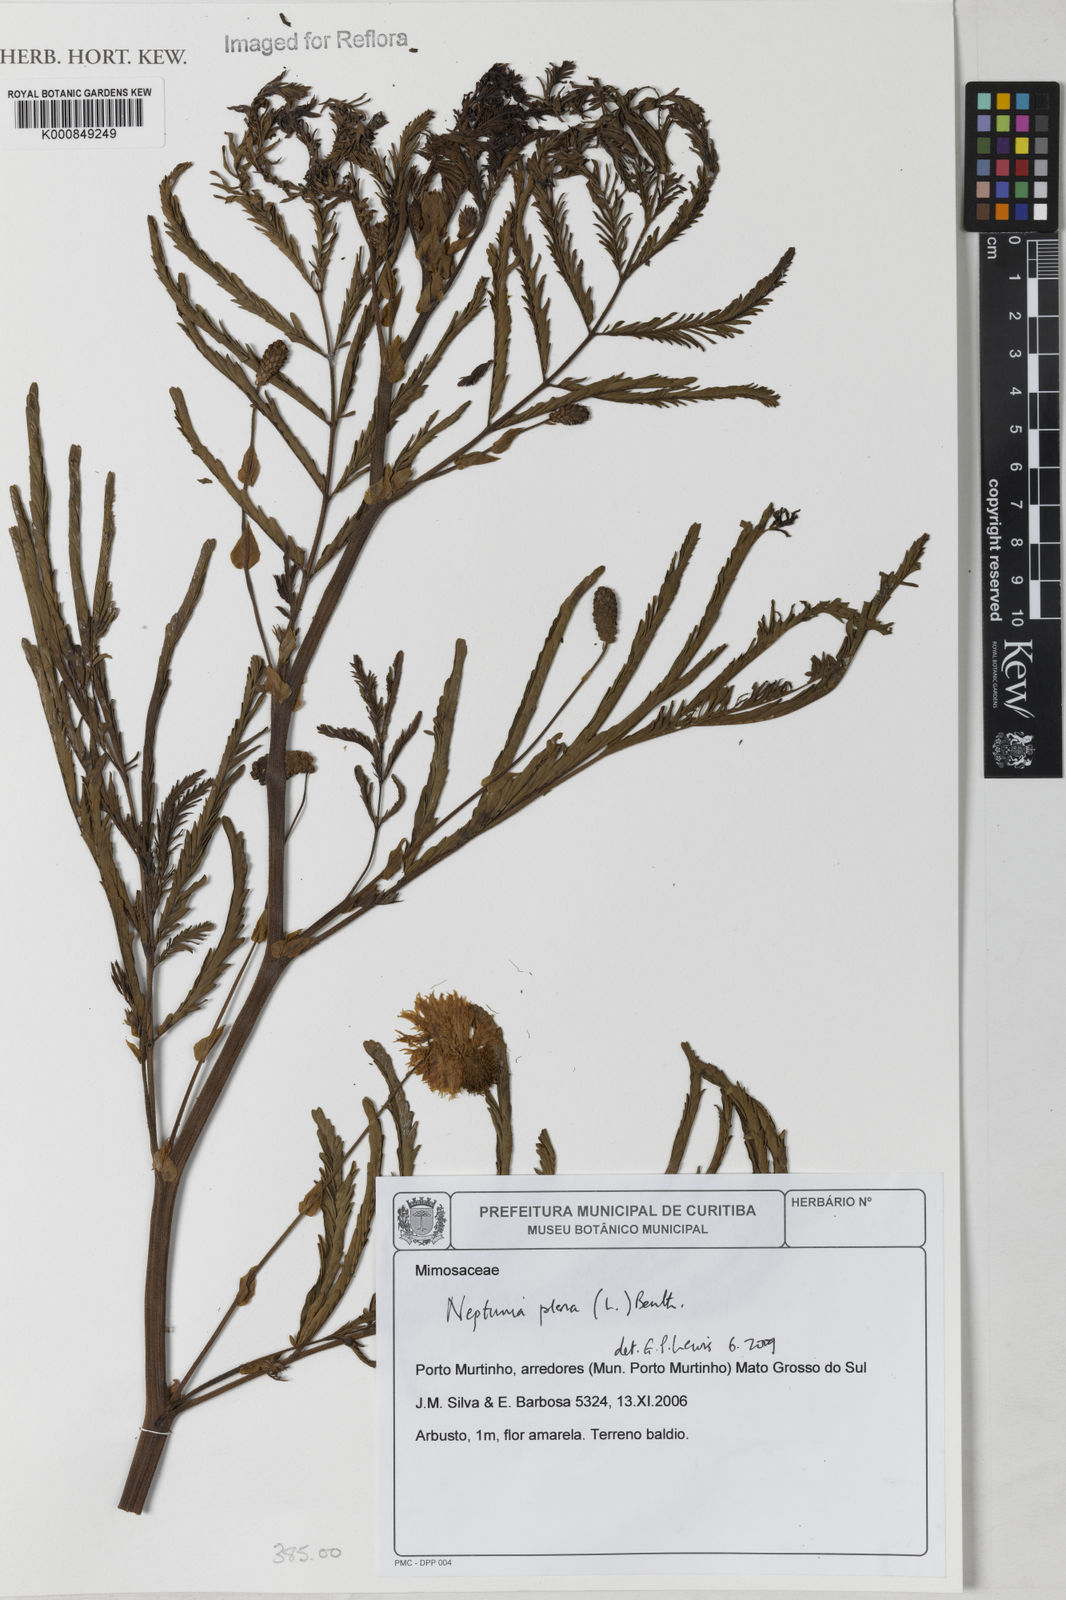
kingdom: Plantae
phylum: Tracheophyta
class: Magnoliopsida
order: Fabales
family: Fabaceae
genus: Neptunia
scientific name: Neptunia plena
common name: Dead and awake
